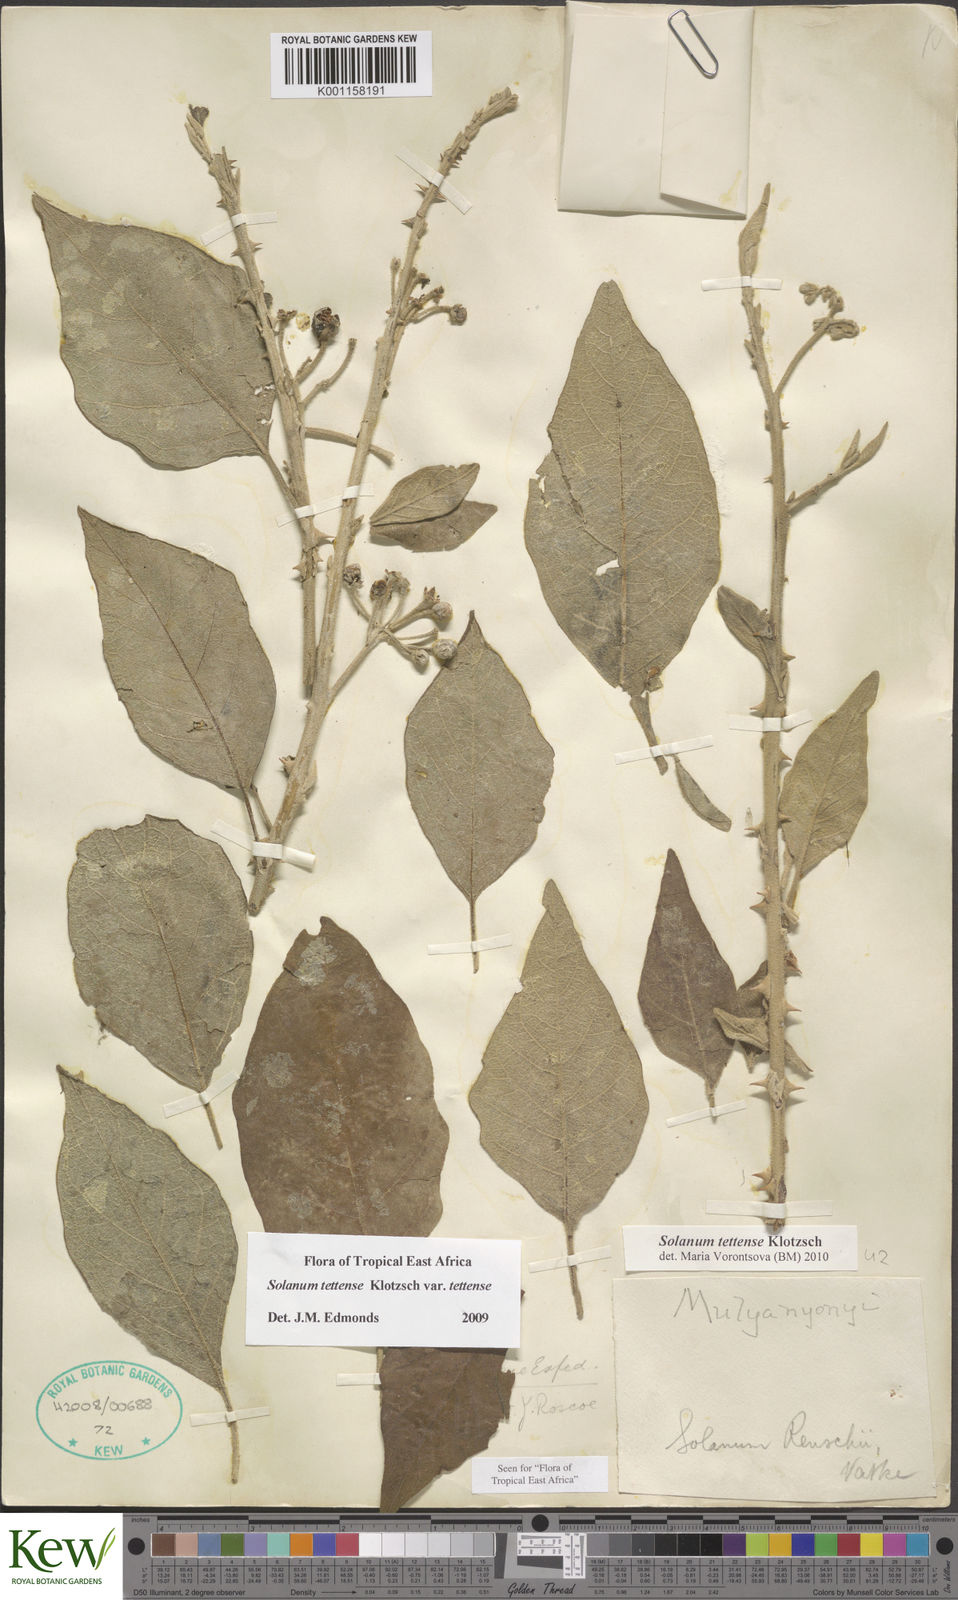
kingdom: Plantae
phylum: Tracheophyta
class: Magnoliopsida
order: Solanales
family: Solanaceae
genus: Solanum
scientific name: Solanum tettense
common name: Mozambique bitter apple
